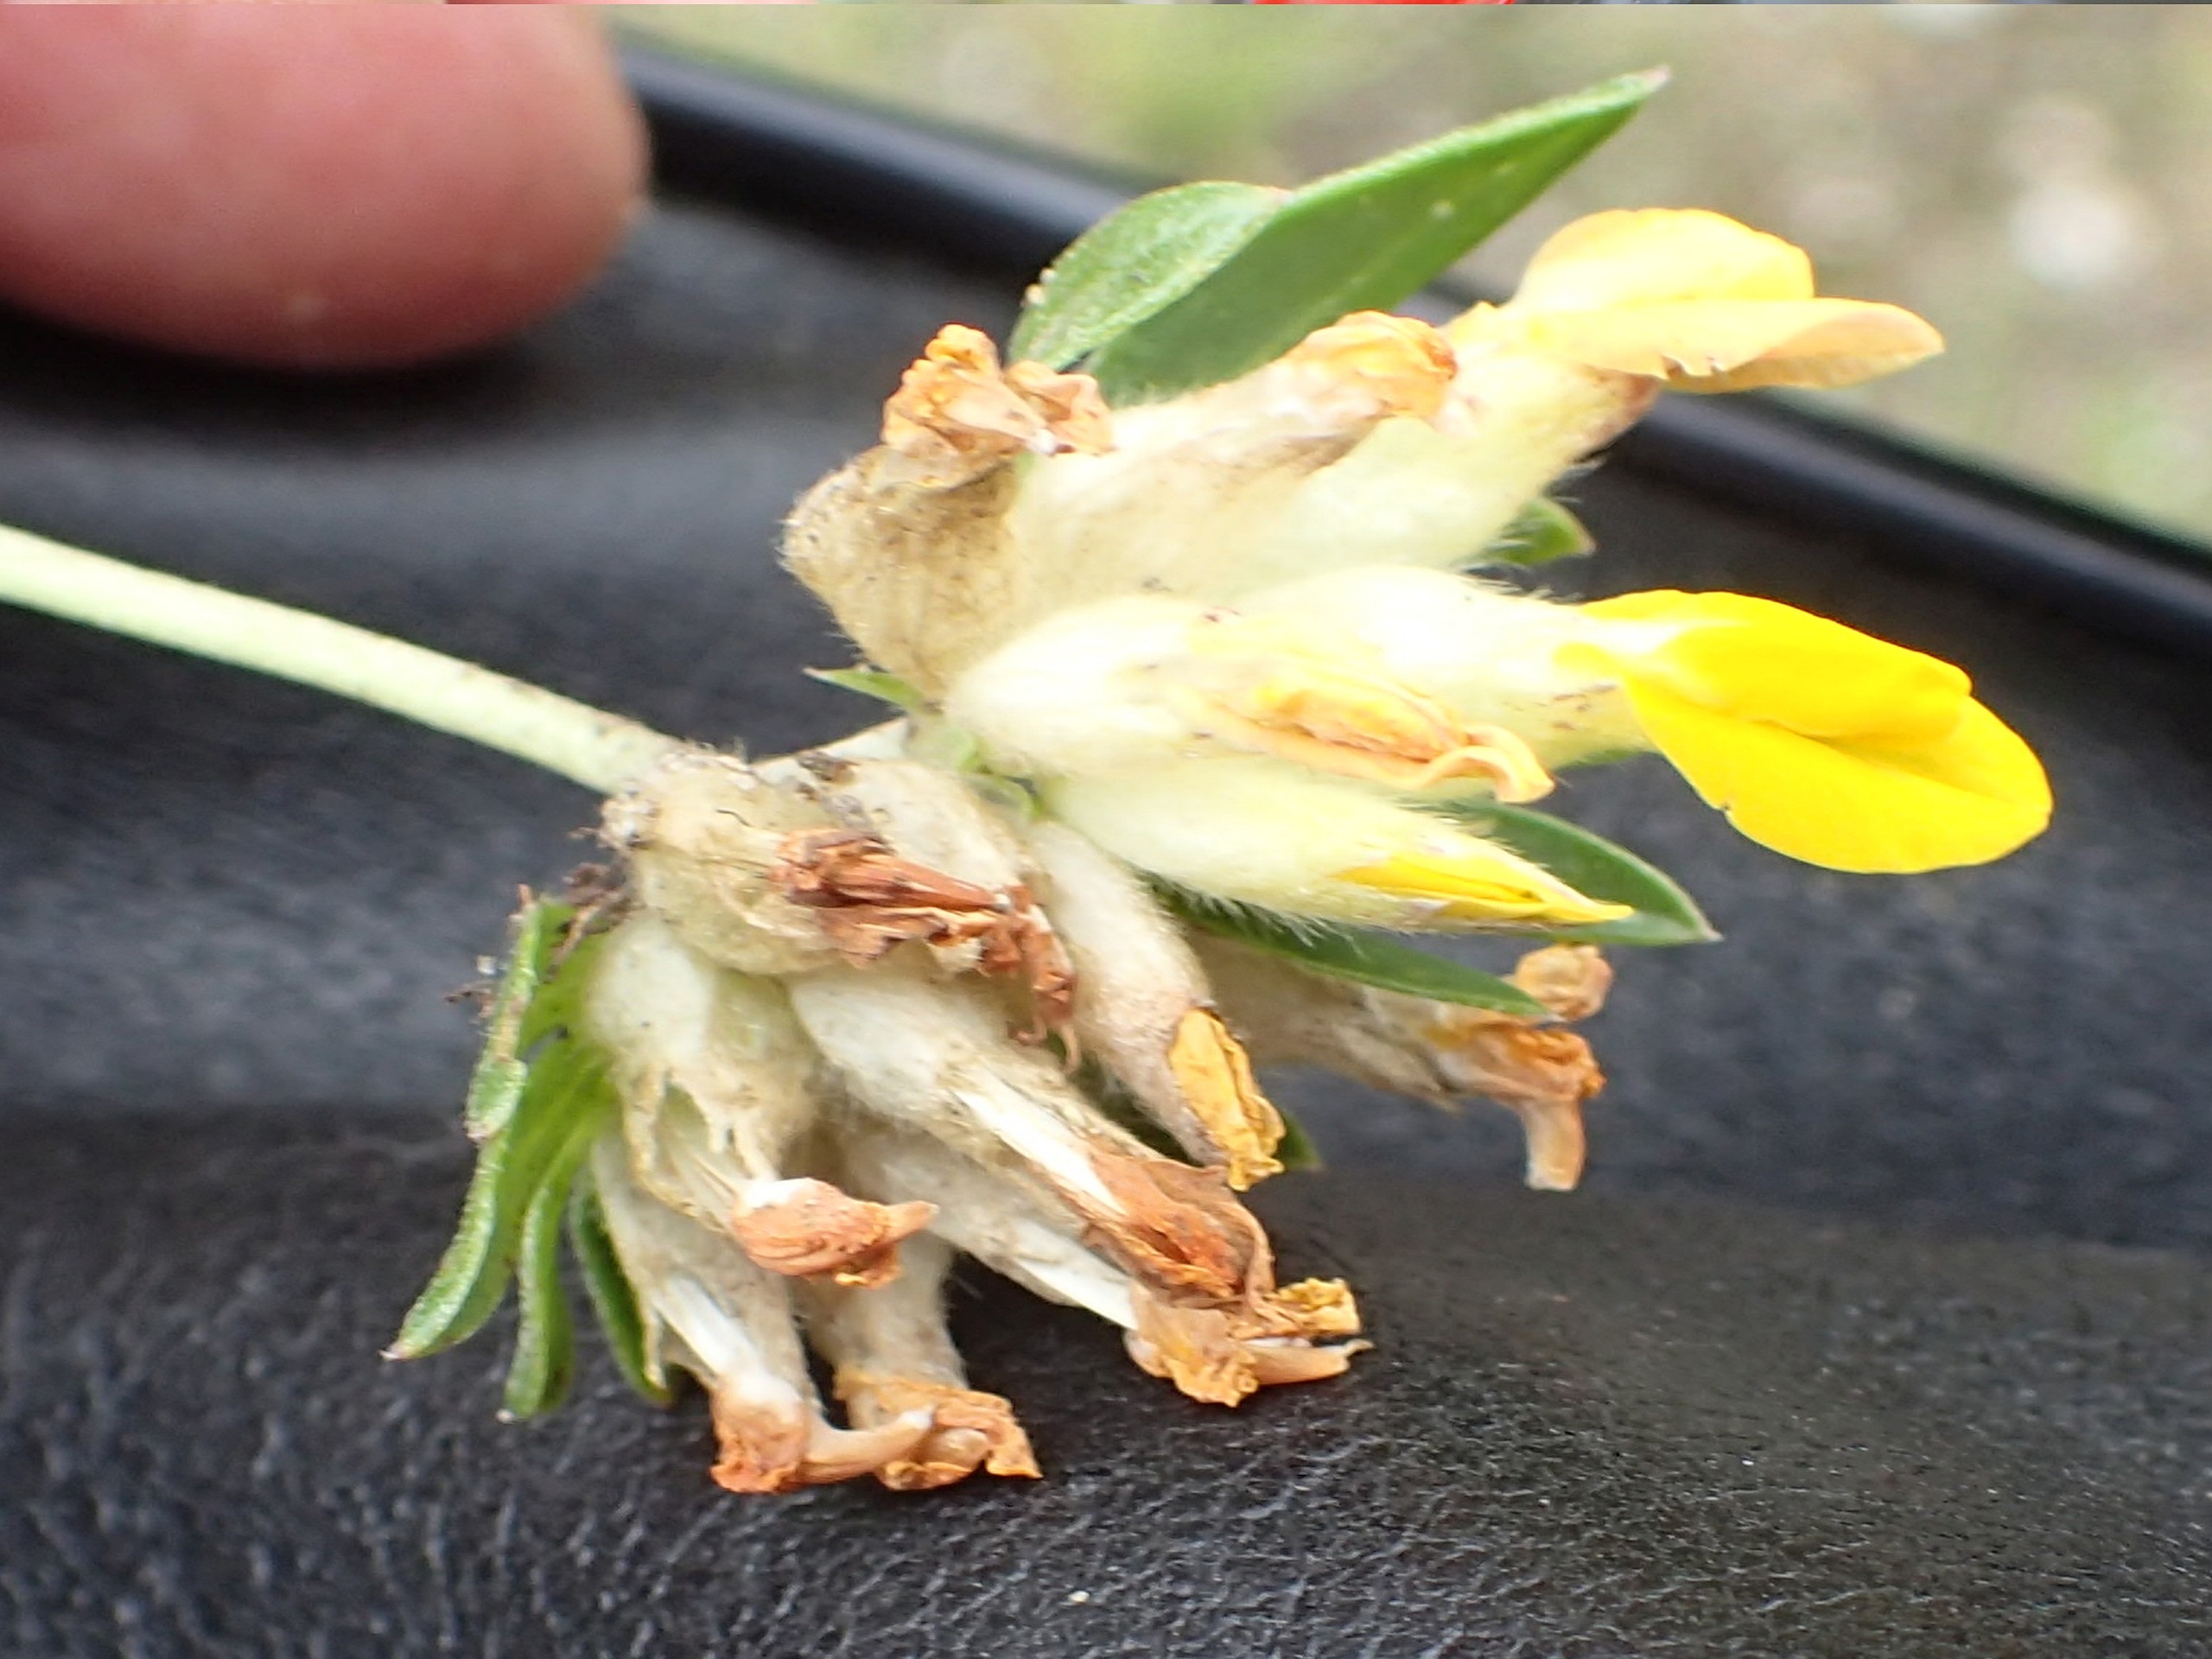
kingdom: Plantae
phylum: Tracheophyta
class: Magnoliopsida
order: Fabales
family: Fabaceae
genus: Anthyllis
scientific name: Anthyllis vulneraria
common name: Rundbælg
